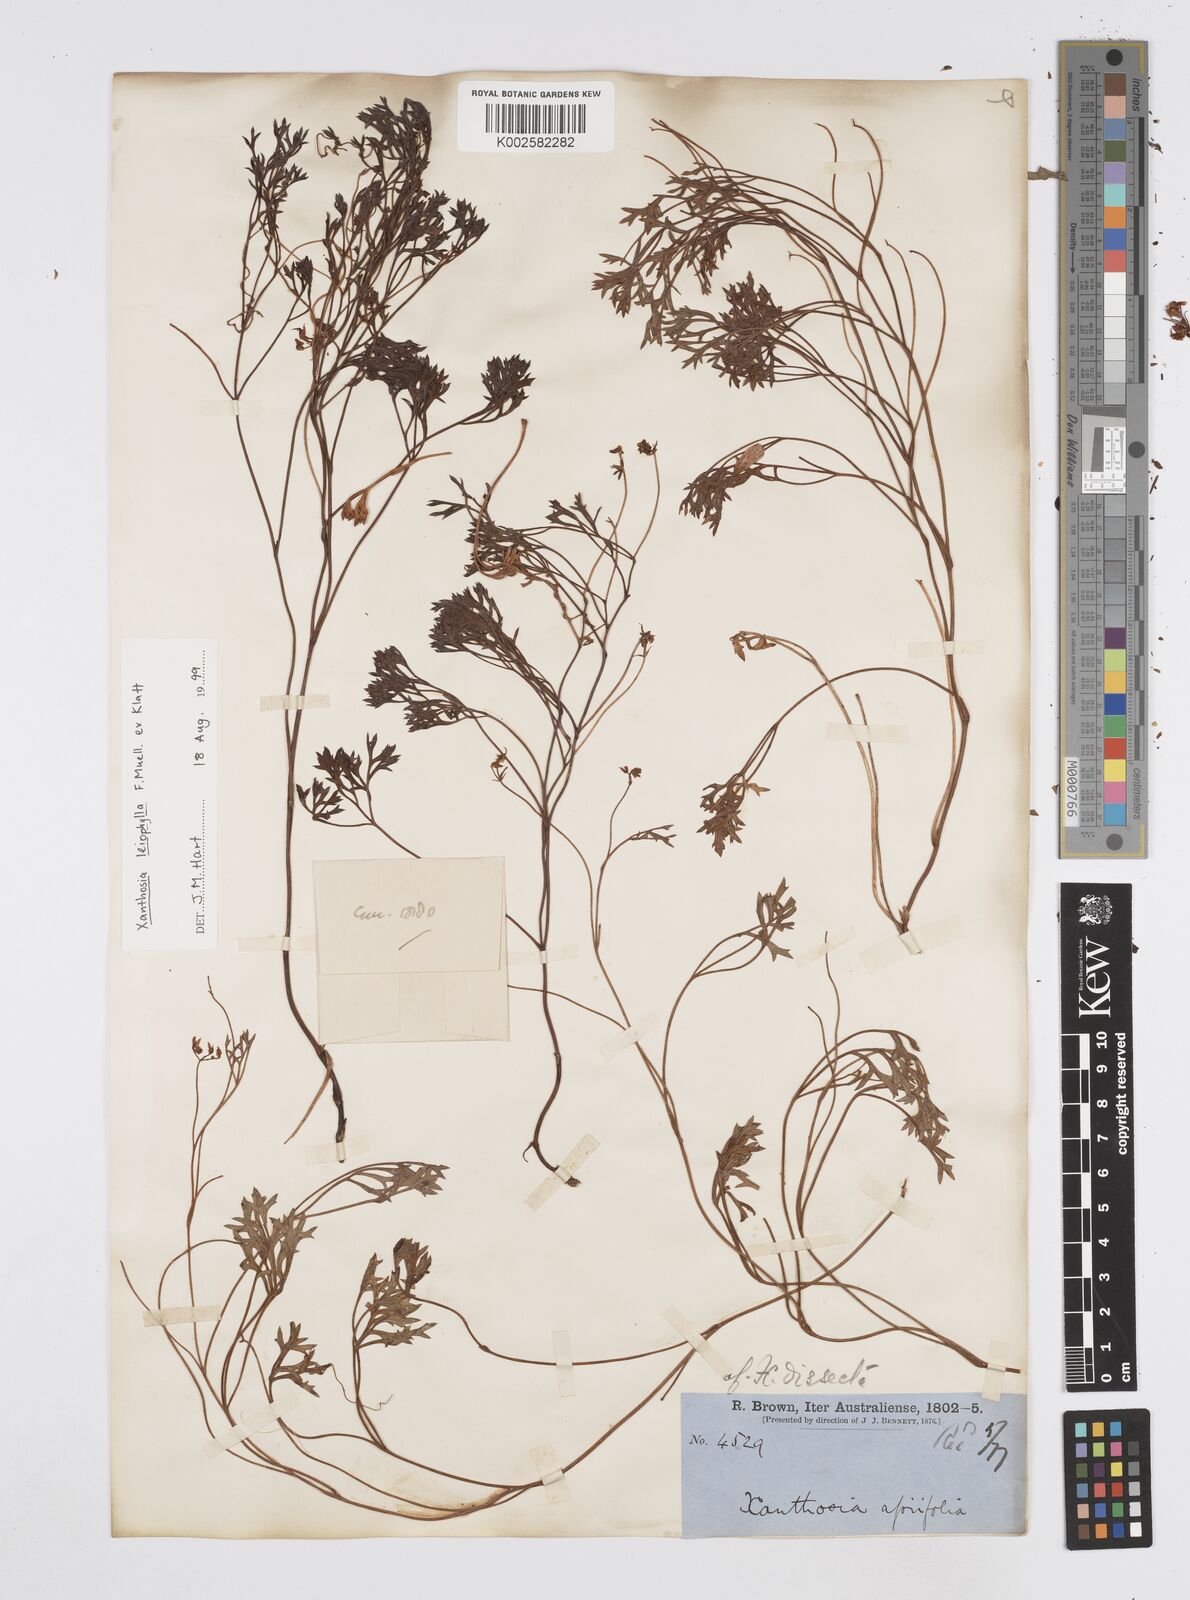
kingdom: Plantae
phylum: Tracheophyta
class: Magnoliopsida
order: Apiales
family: Apiaceae
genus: Xanthosia
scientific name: Xanthosia leiophylla
